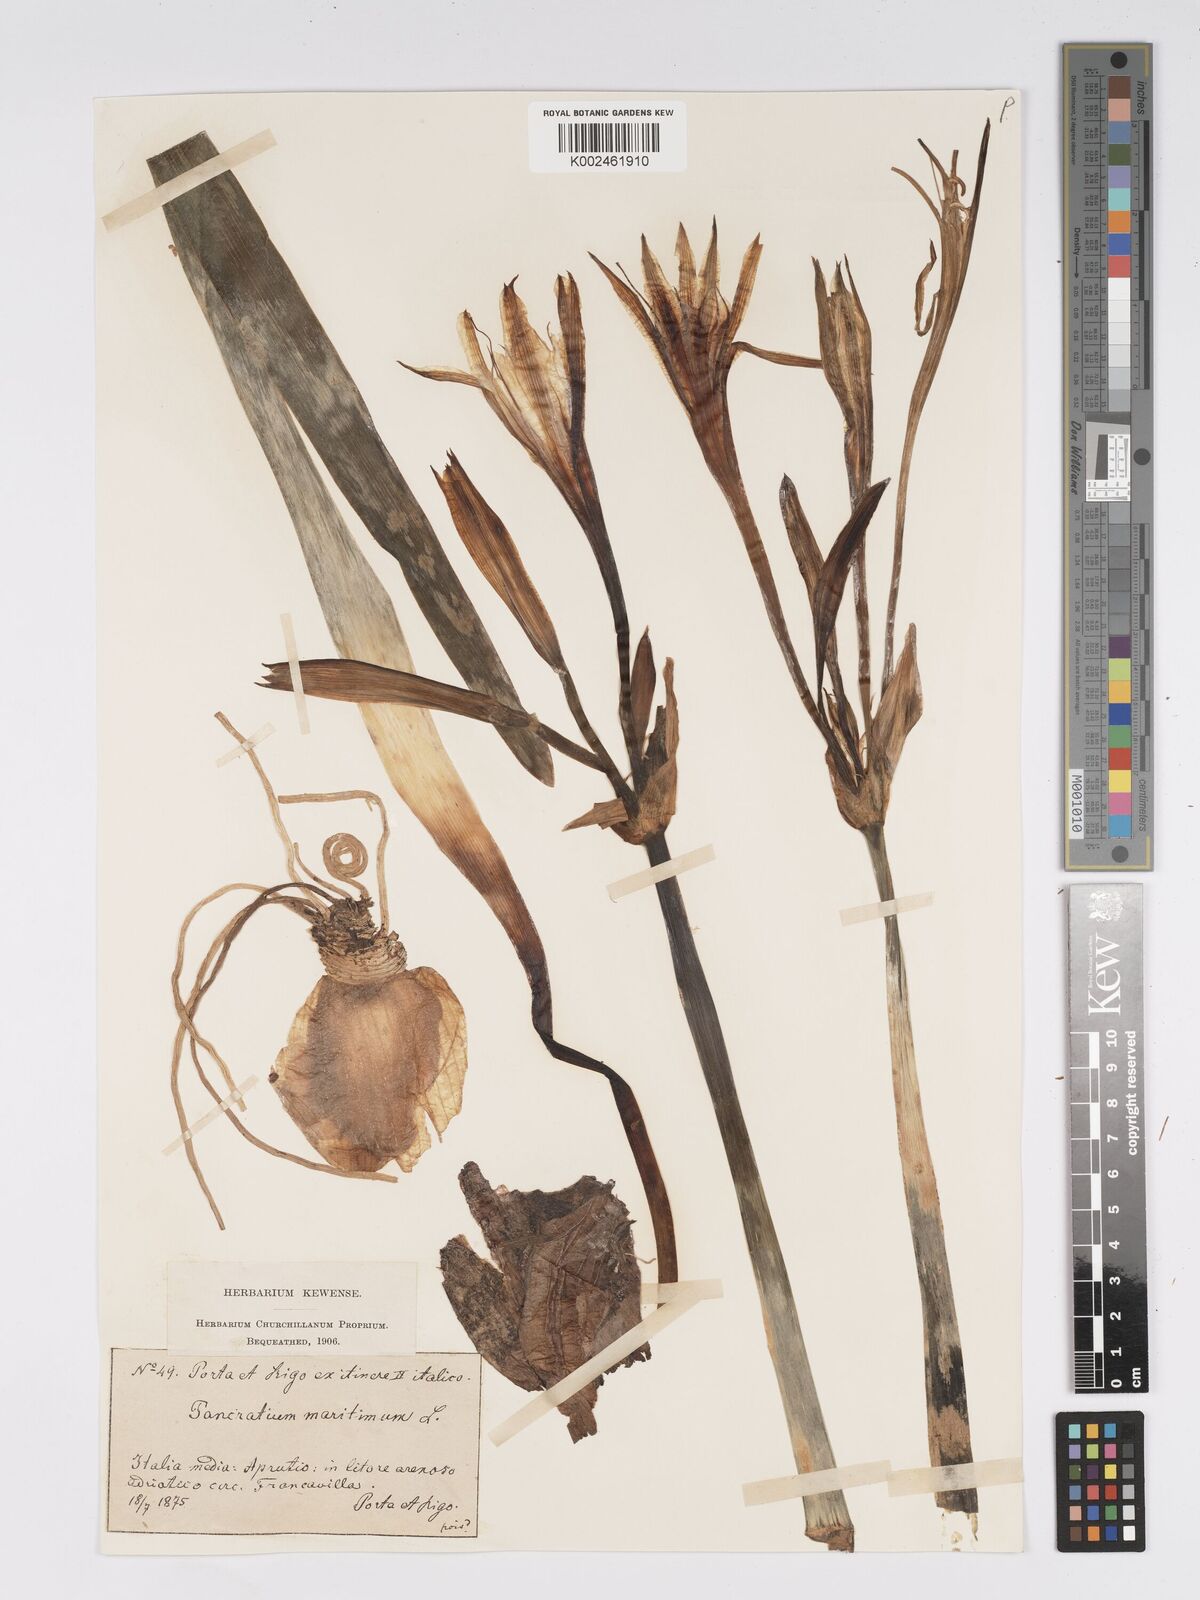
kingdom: Plantae
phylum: Tracheophyta
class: Liliopsida
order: Asparagales
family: Amaryllidaceae
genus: Pancratium
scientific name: Pancratium maritimum
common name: Sea-daffodil
